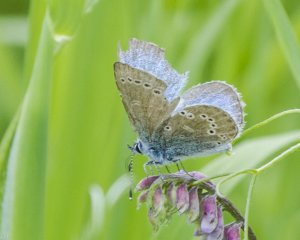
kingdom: Animalia
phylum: Arthropoda
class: Insecta
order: Lepidoptera
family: Lycaenidae
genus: Glaucopsyche
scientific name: Glaucopsyche lygdamus
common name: Silvery Blue
